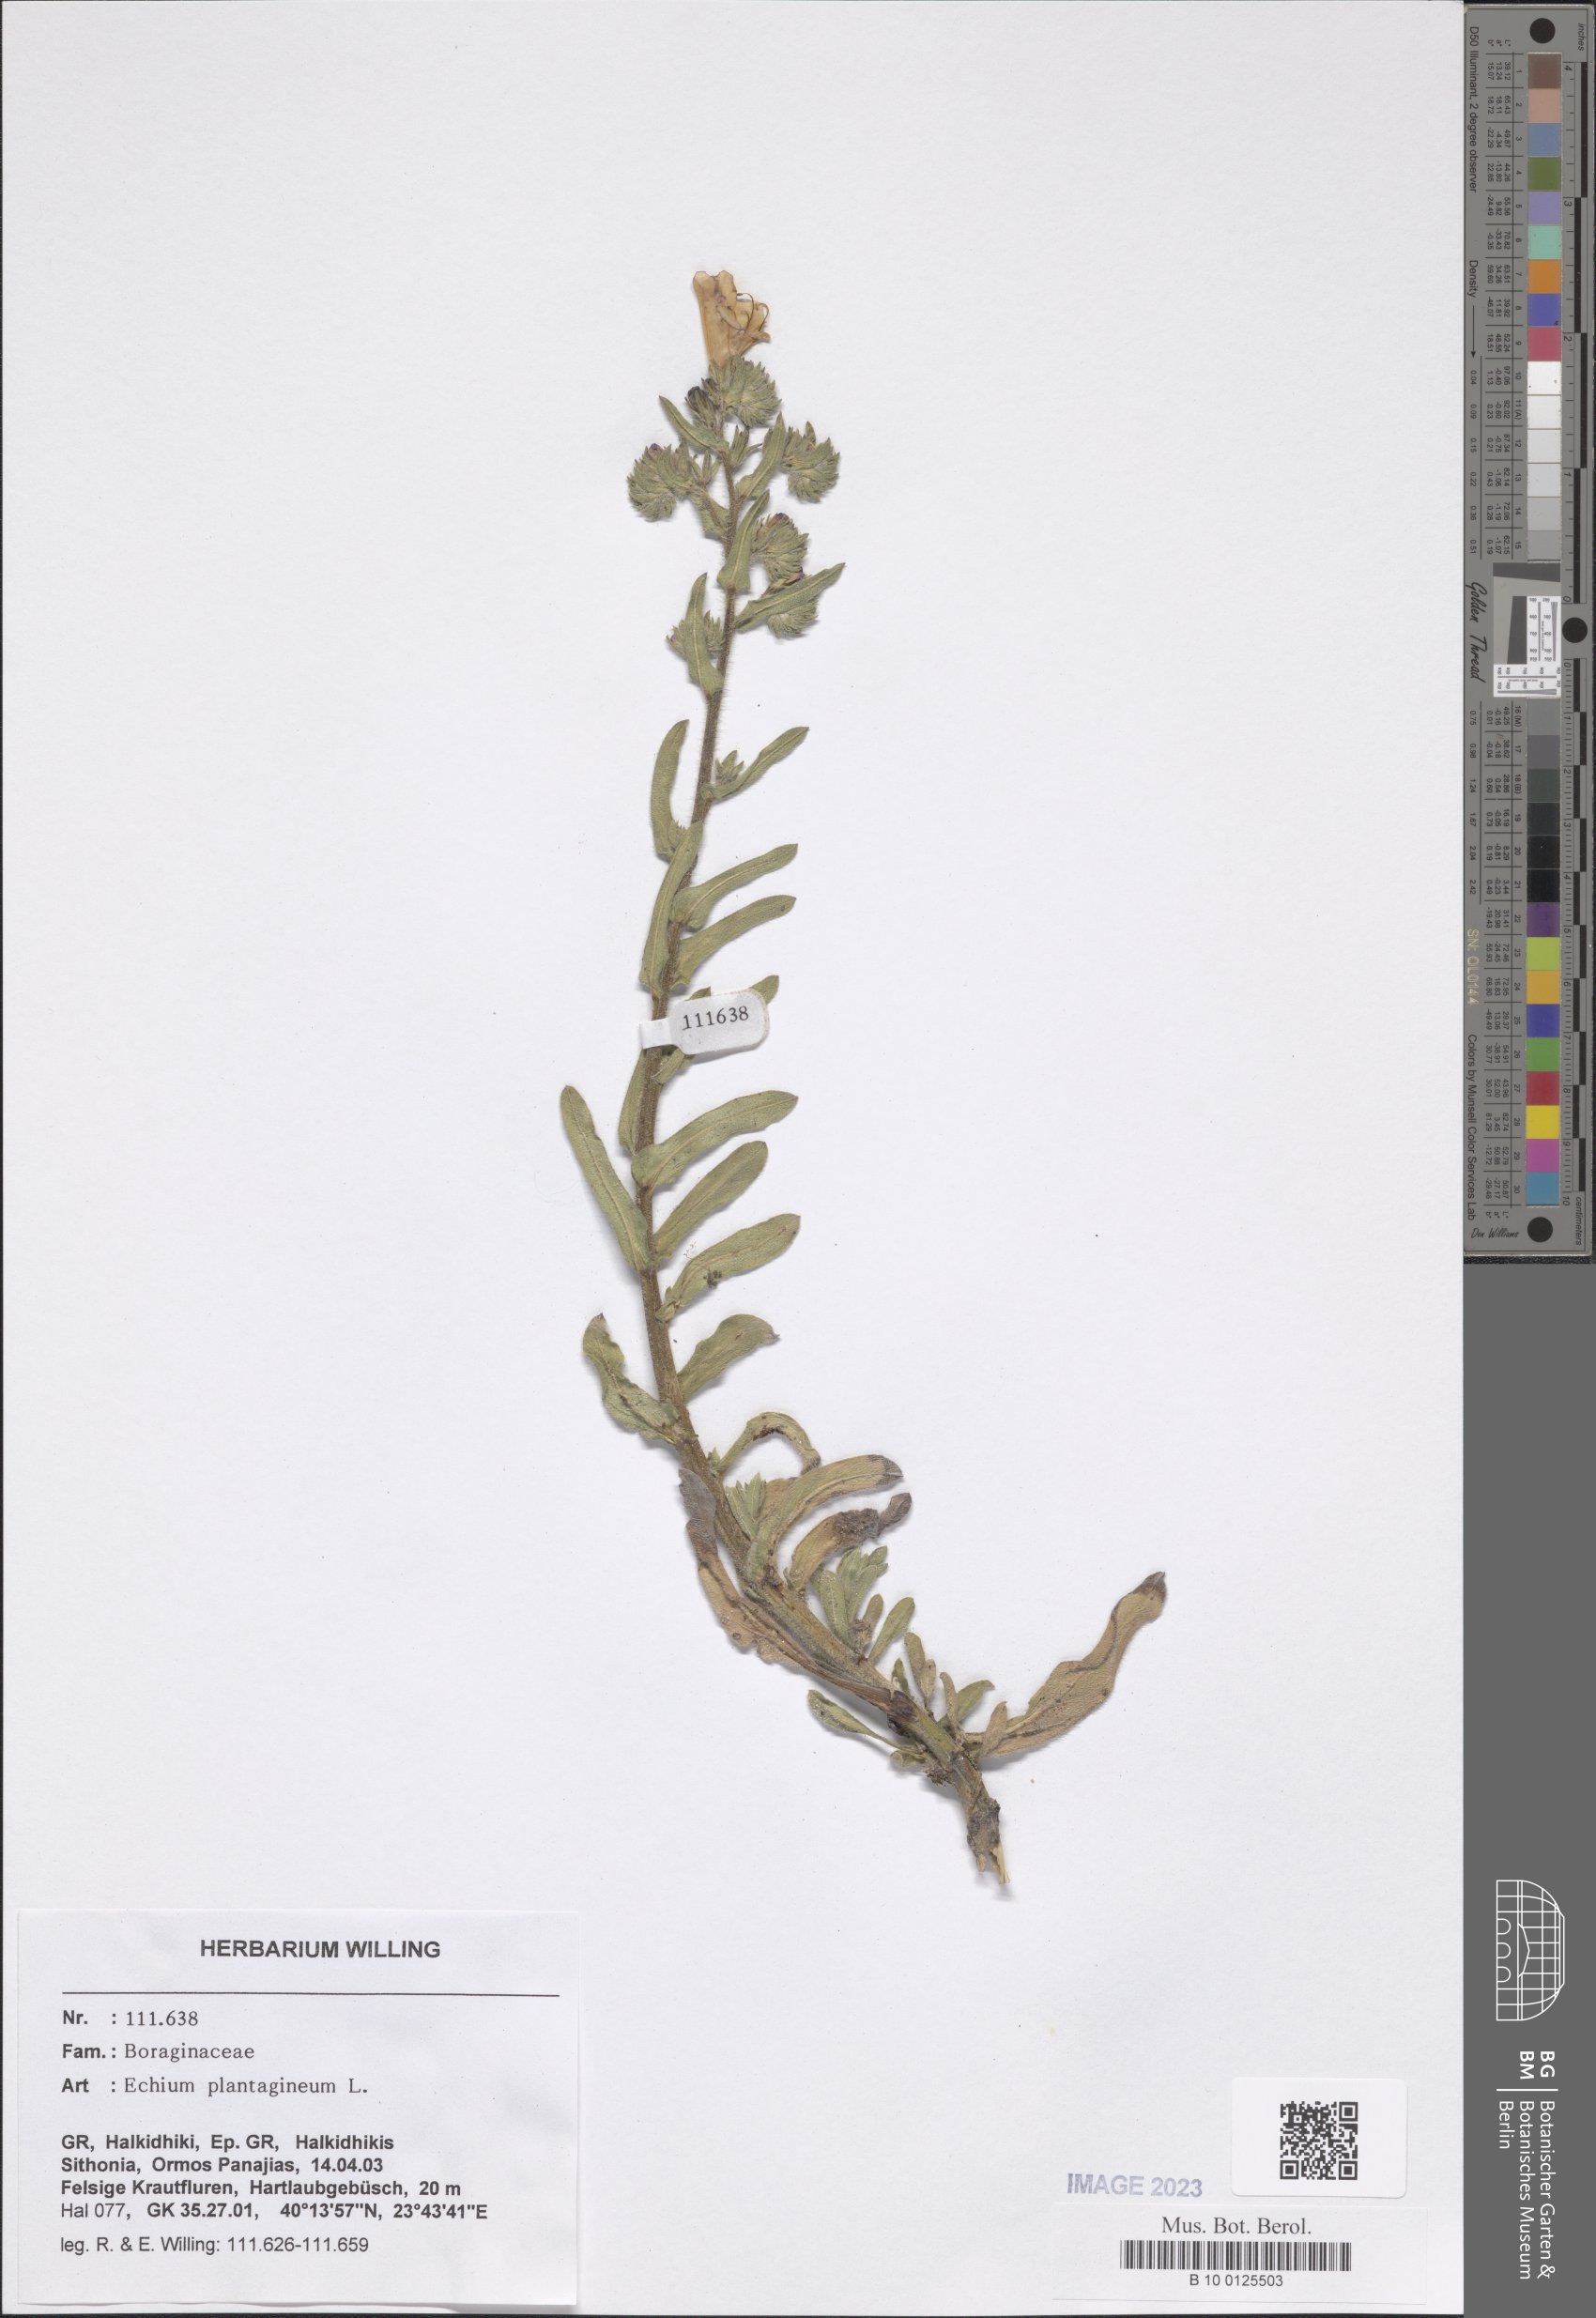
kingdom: Plantae
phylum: Tracheophyta
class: Magnoliopsida
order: Boraginales
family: Boraginaceae
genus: Echium
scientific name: Echium plantagineum
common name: Purple viper's-bugloss
